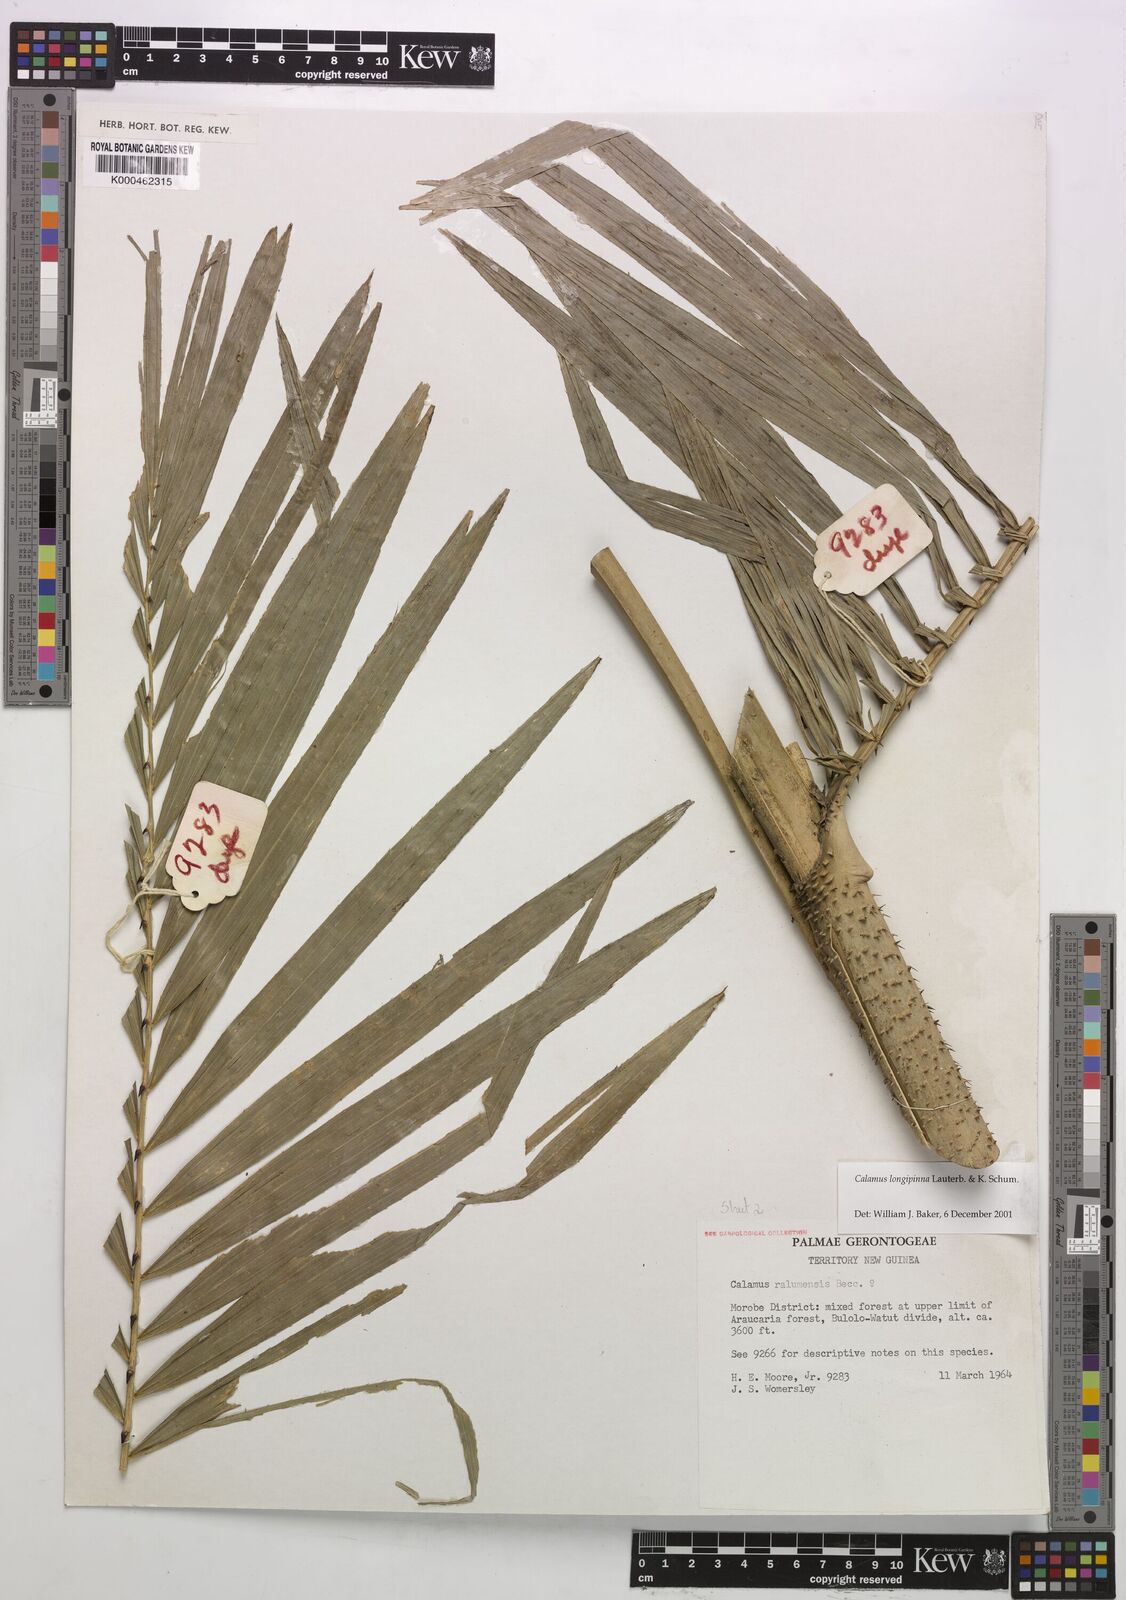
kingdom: Plantae
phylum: Tracheophyta
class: Liliopsida
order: Arecales
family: Arecaceae
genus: Calamus
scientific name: Calamus longipinna
